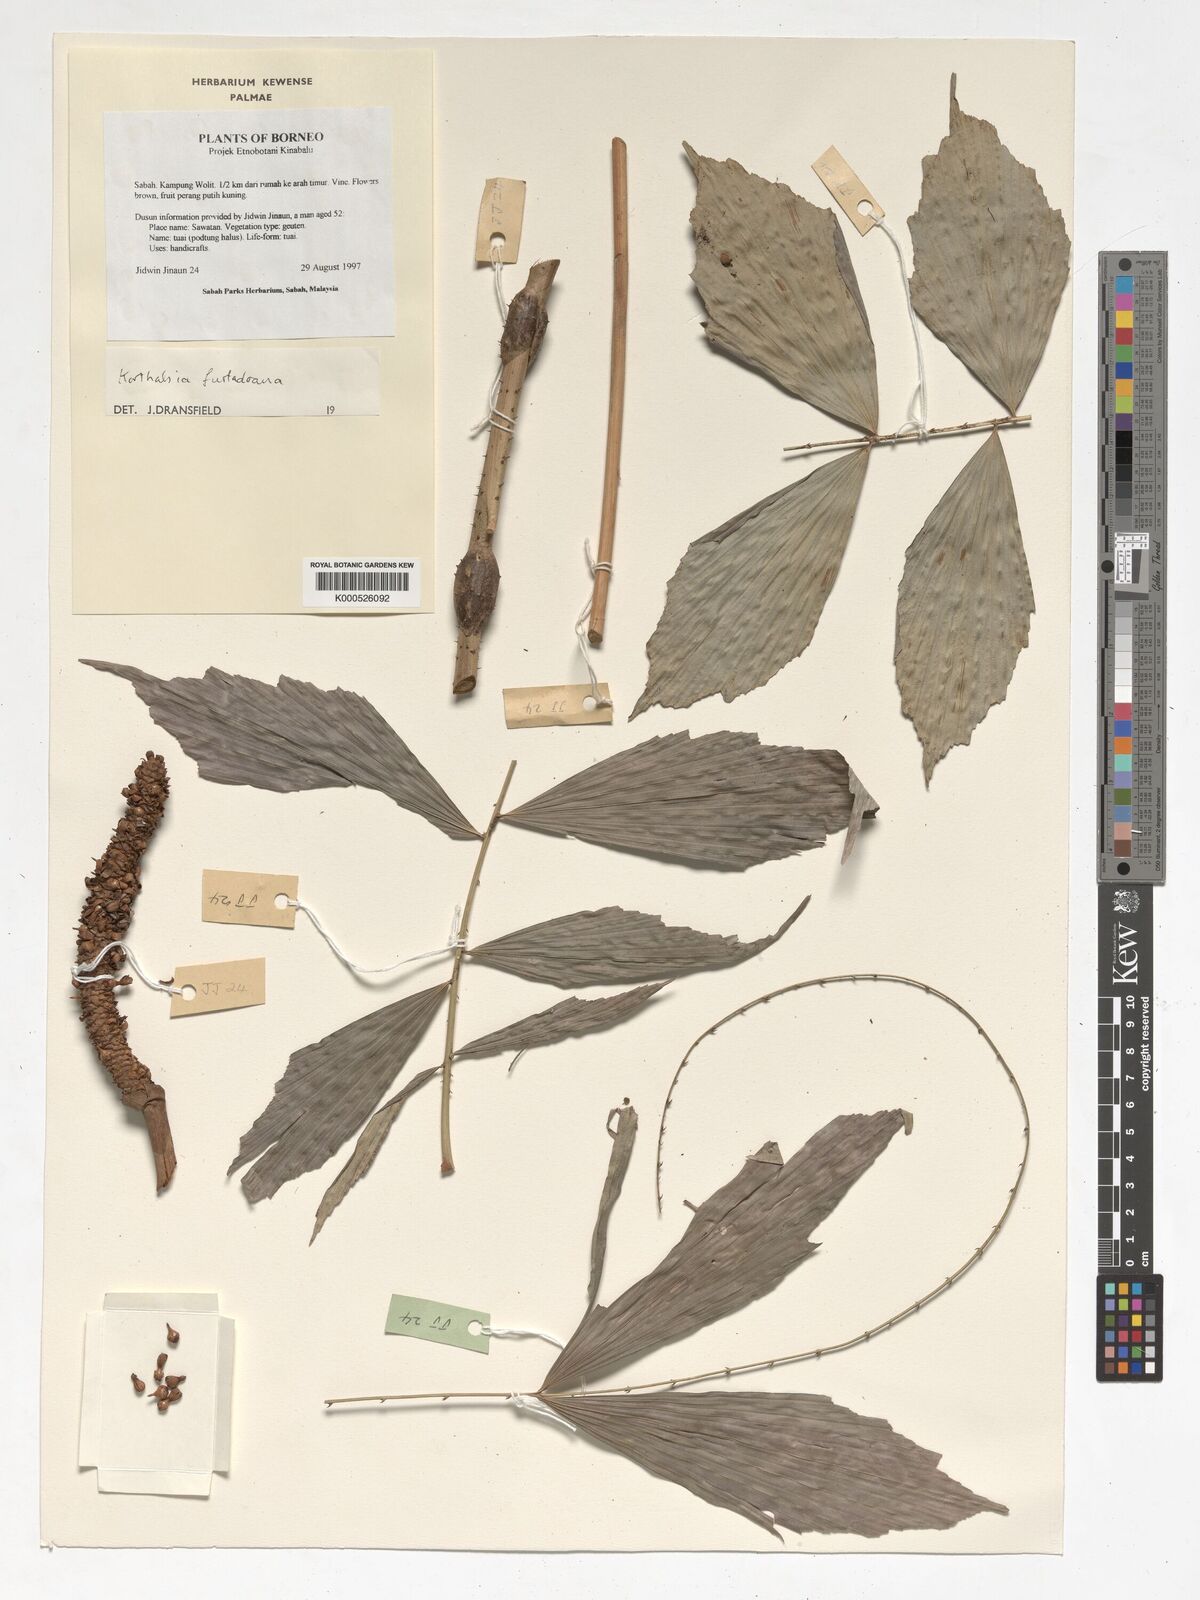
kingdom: Plantae
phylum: Tracheophyta
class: Liliopsida
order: Arecales
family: Arecaceae
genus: Korthalsia
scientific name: Korthalsia furtadoana
